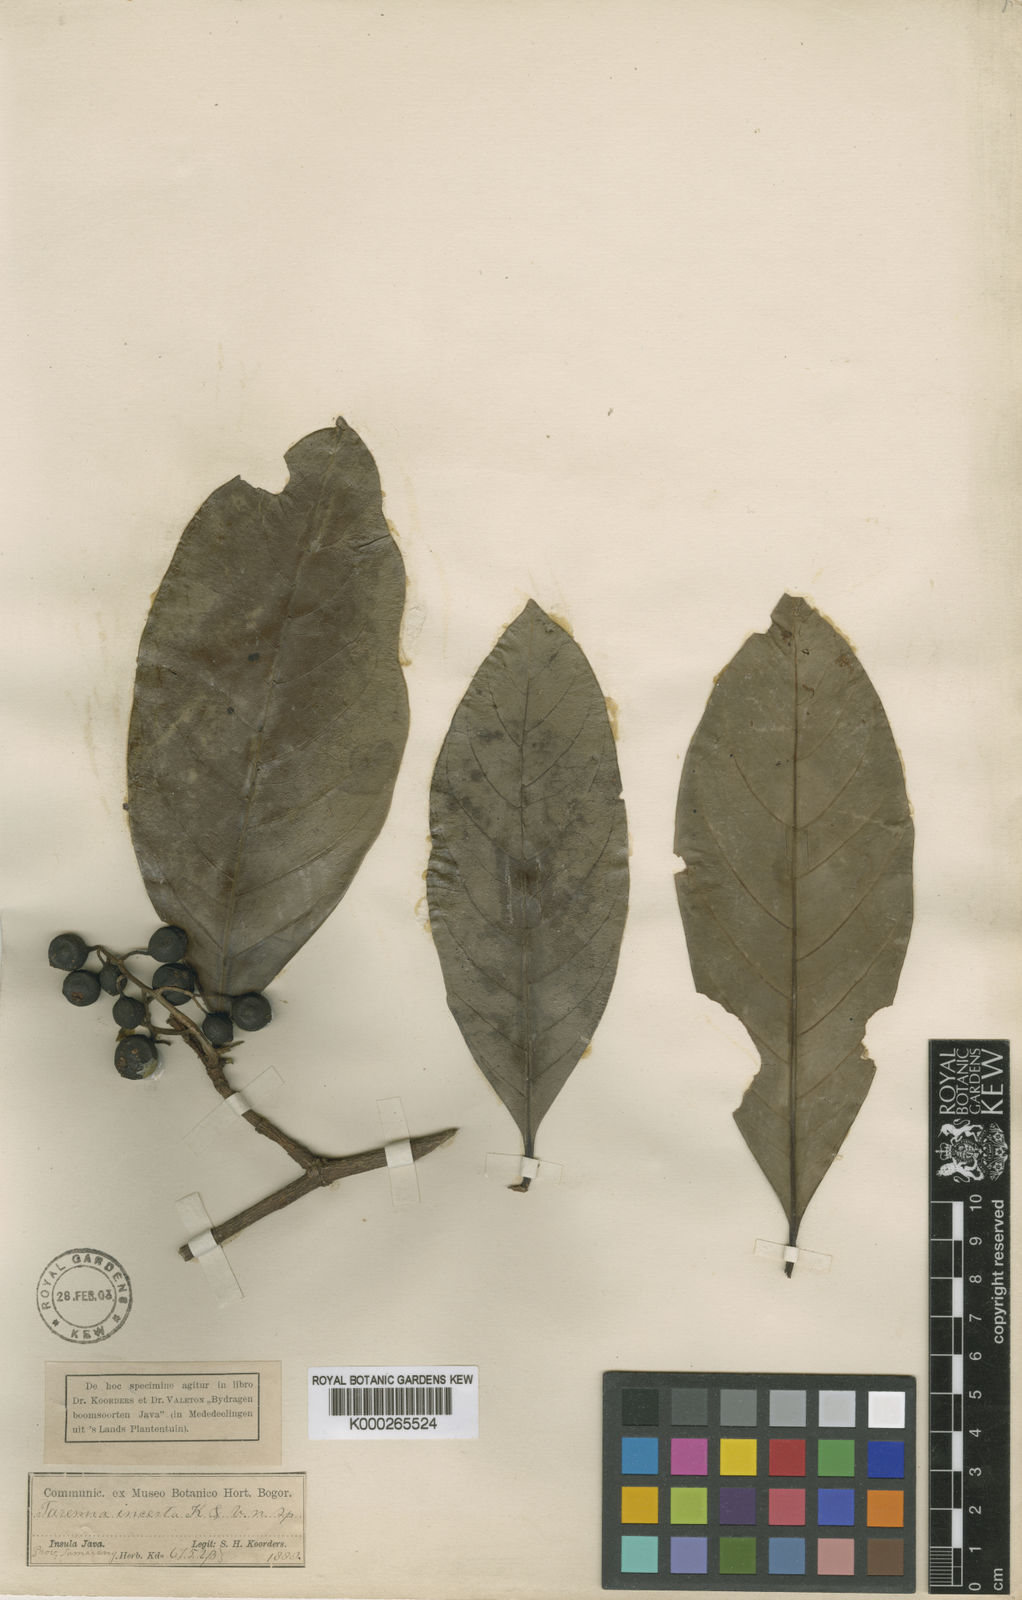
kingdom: Plantae
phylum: Tracheophyta
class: Magnoliopsida
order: Gentianales
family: Rubiaceae
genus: Tarennoidea
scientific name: Tarennoidea wallichii
